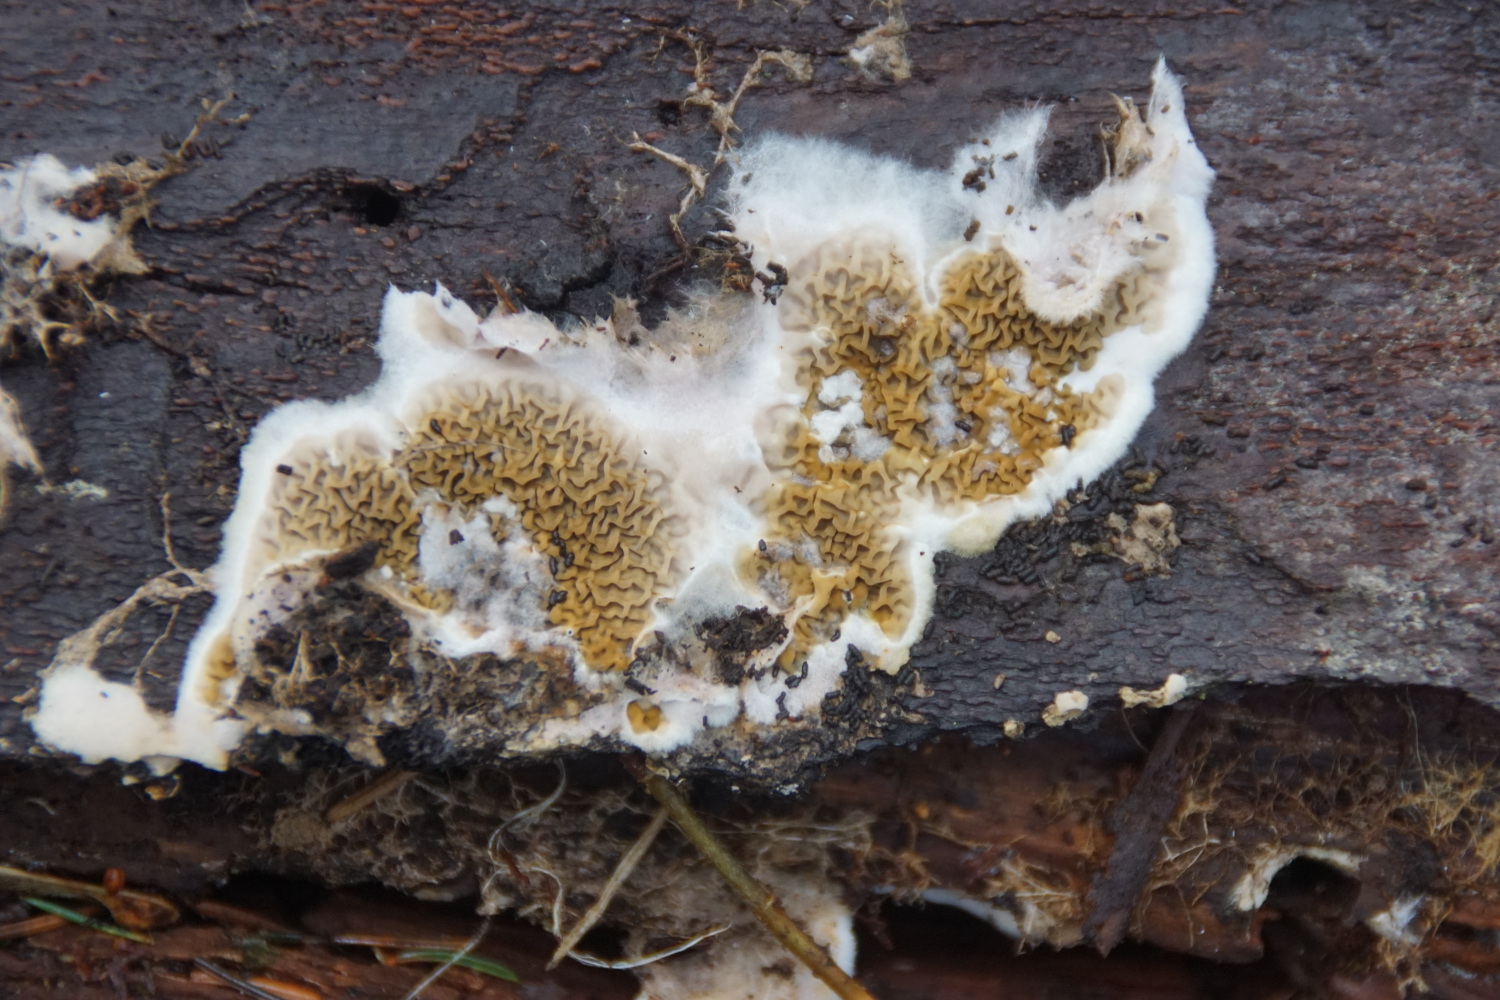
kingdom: Fungi
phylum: Basidiomycota
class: Agaricomycetes
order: Boletales
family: Serpulaceae
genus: Serpula
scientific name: Serpula himantioides
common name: tyndkødet hussvamp
